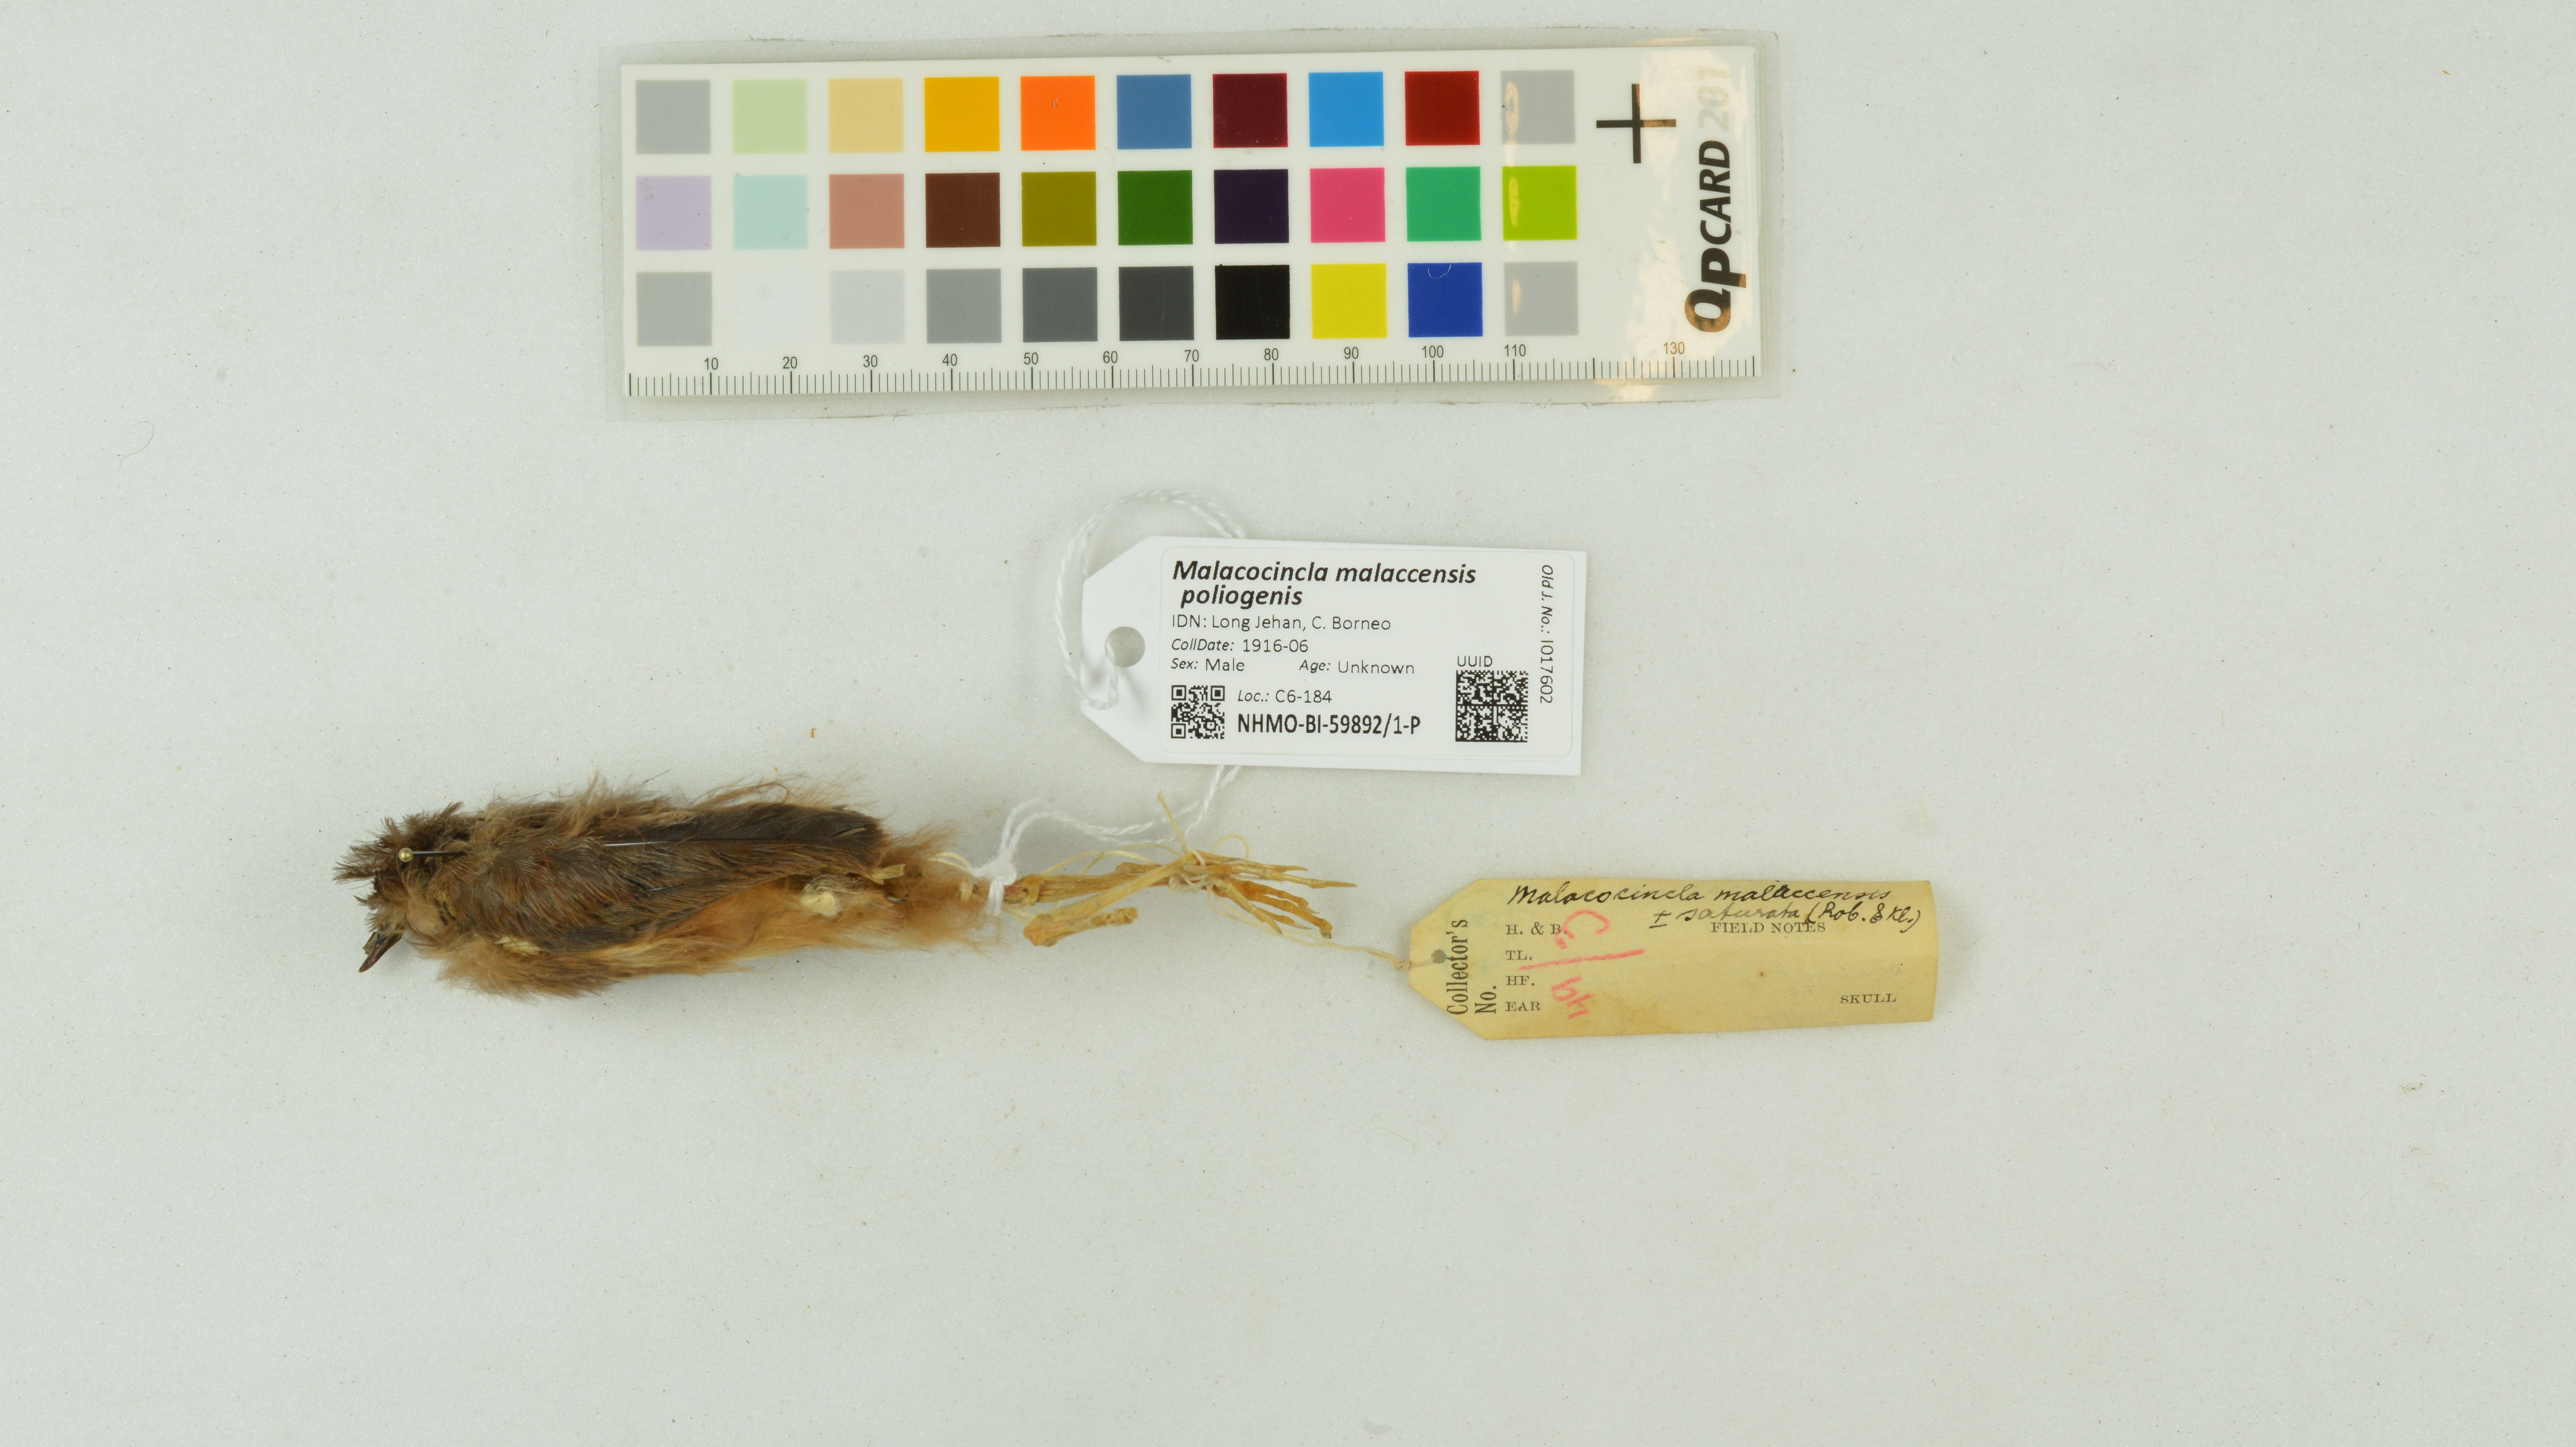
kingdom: Animalia
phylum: Chordata
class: Aves
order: Passeriformes
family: Pellorneidae
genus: Pellorneum
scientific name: Pellorneum malaccense
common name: Short-tailed babbler
